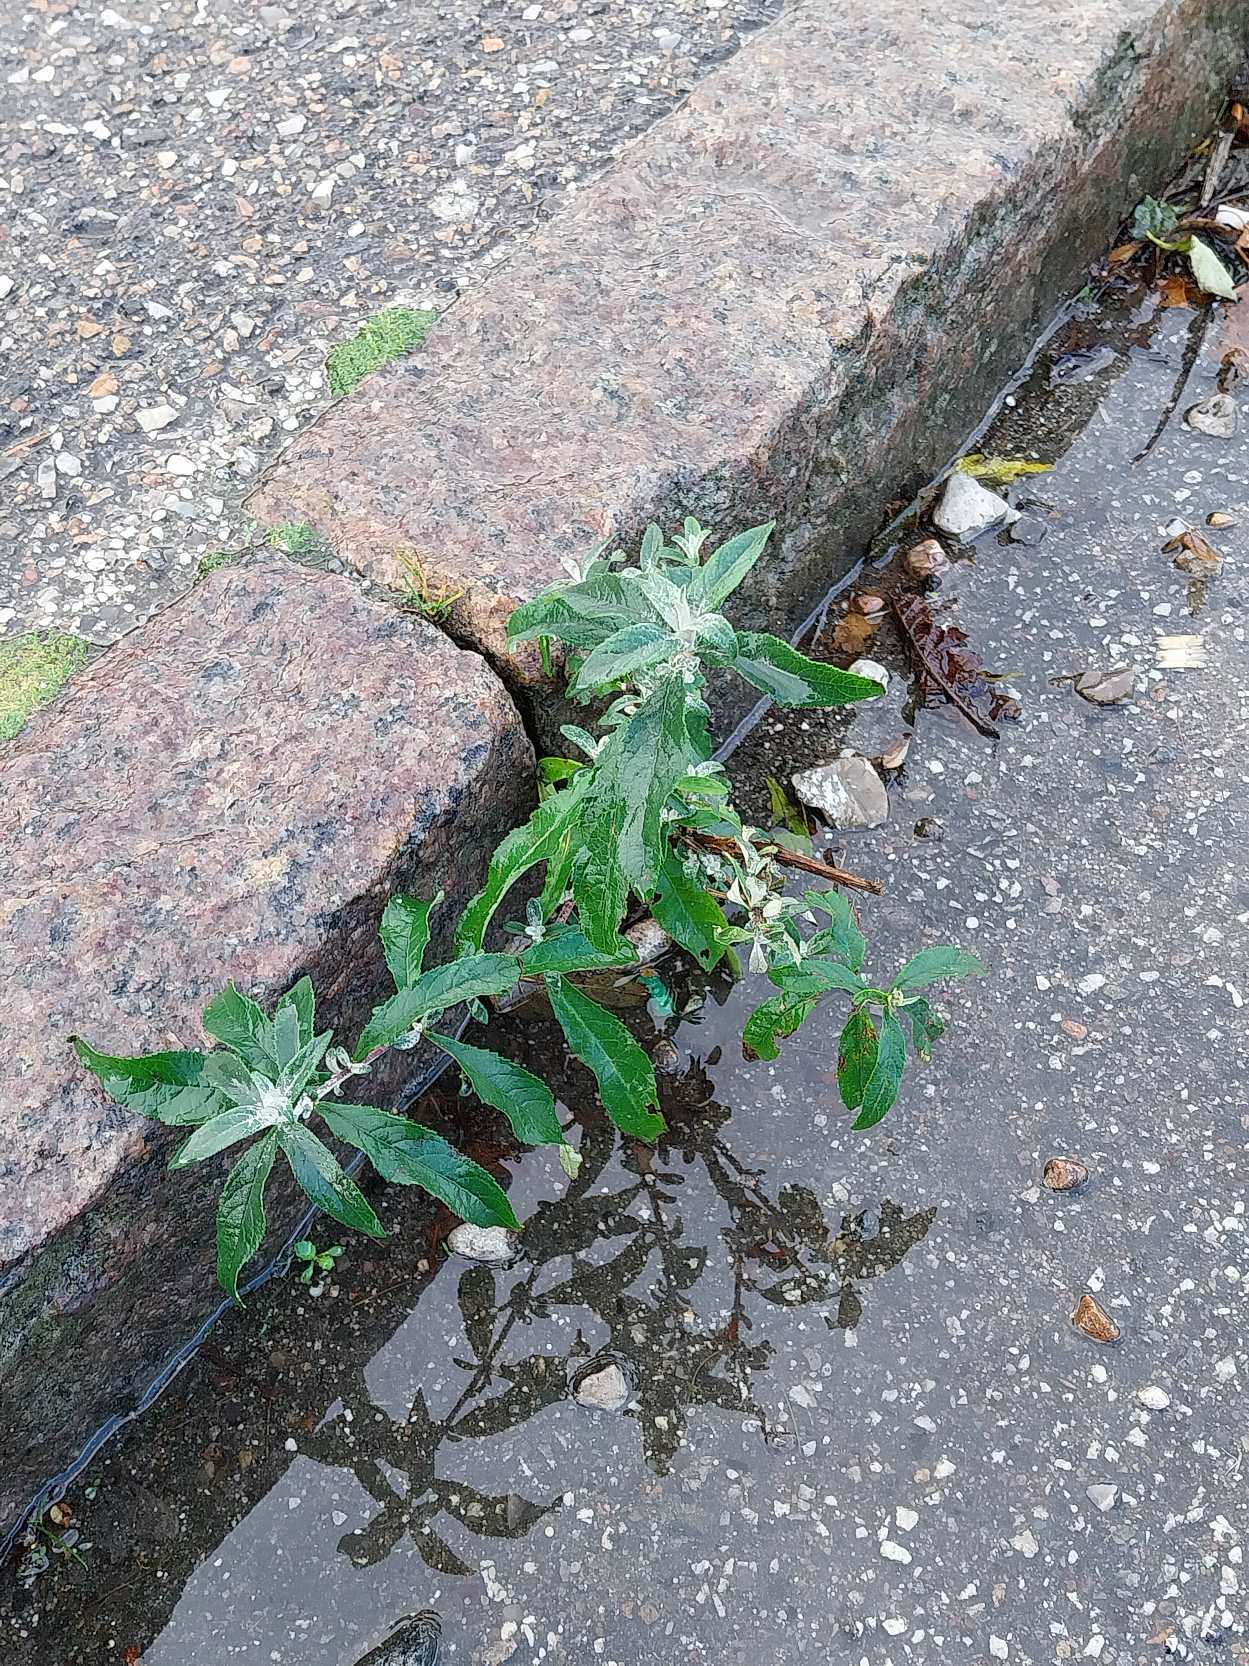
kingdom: Plantae
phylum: Tracheophyta
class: Magnoliopsida
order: Lamiales
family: Scrophulariaceae
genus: Buddleja
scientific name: Buddleja davidii
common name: Sommerfuglebusk
